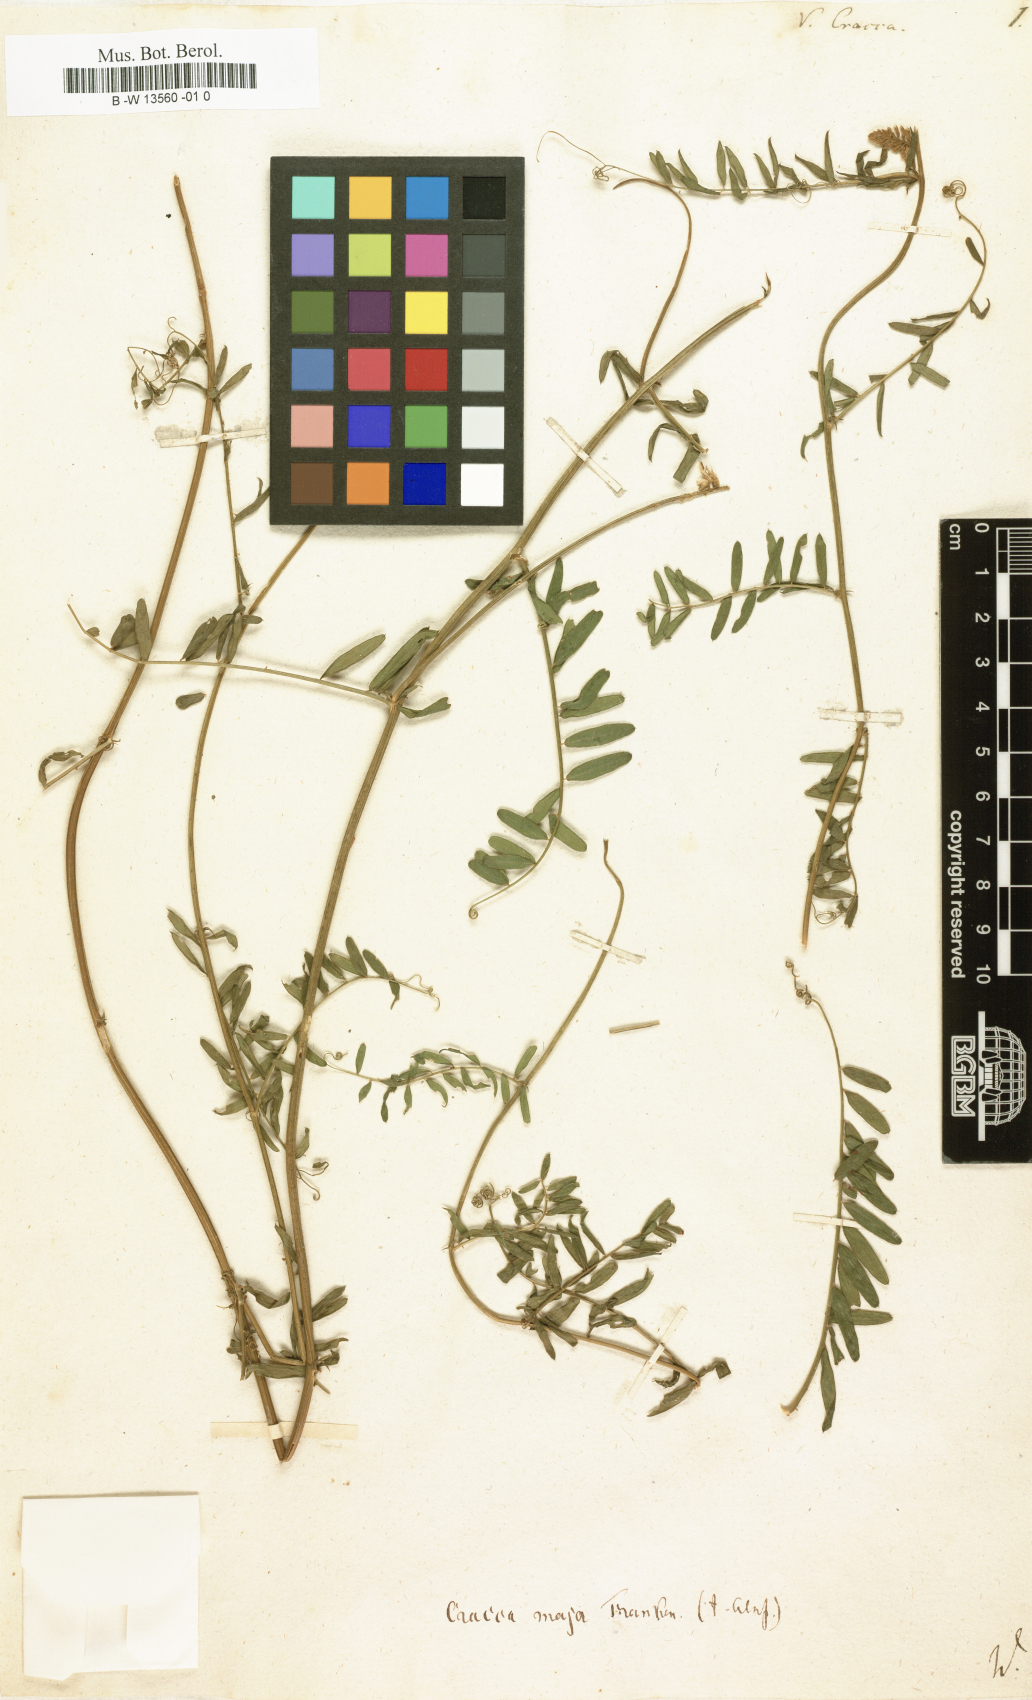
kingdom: Plantae
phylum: Tracheophyta
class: Magnoliopsida
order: Fabales
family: Fabaceae
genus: Vicia
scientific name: Vicia cracca
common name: Bird vetch
